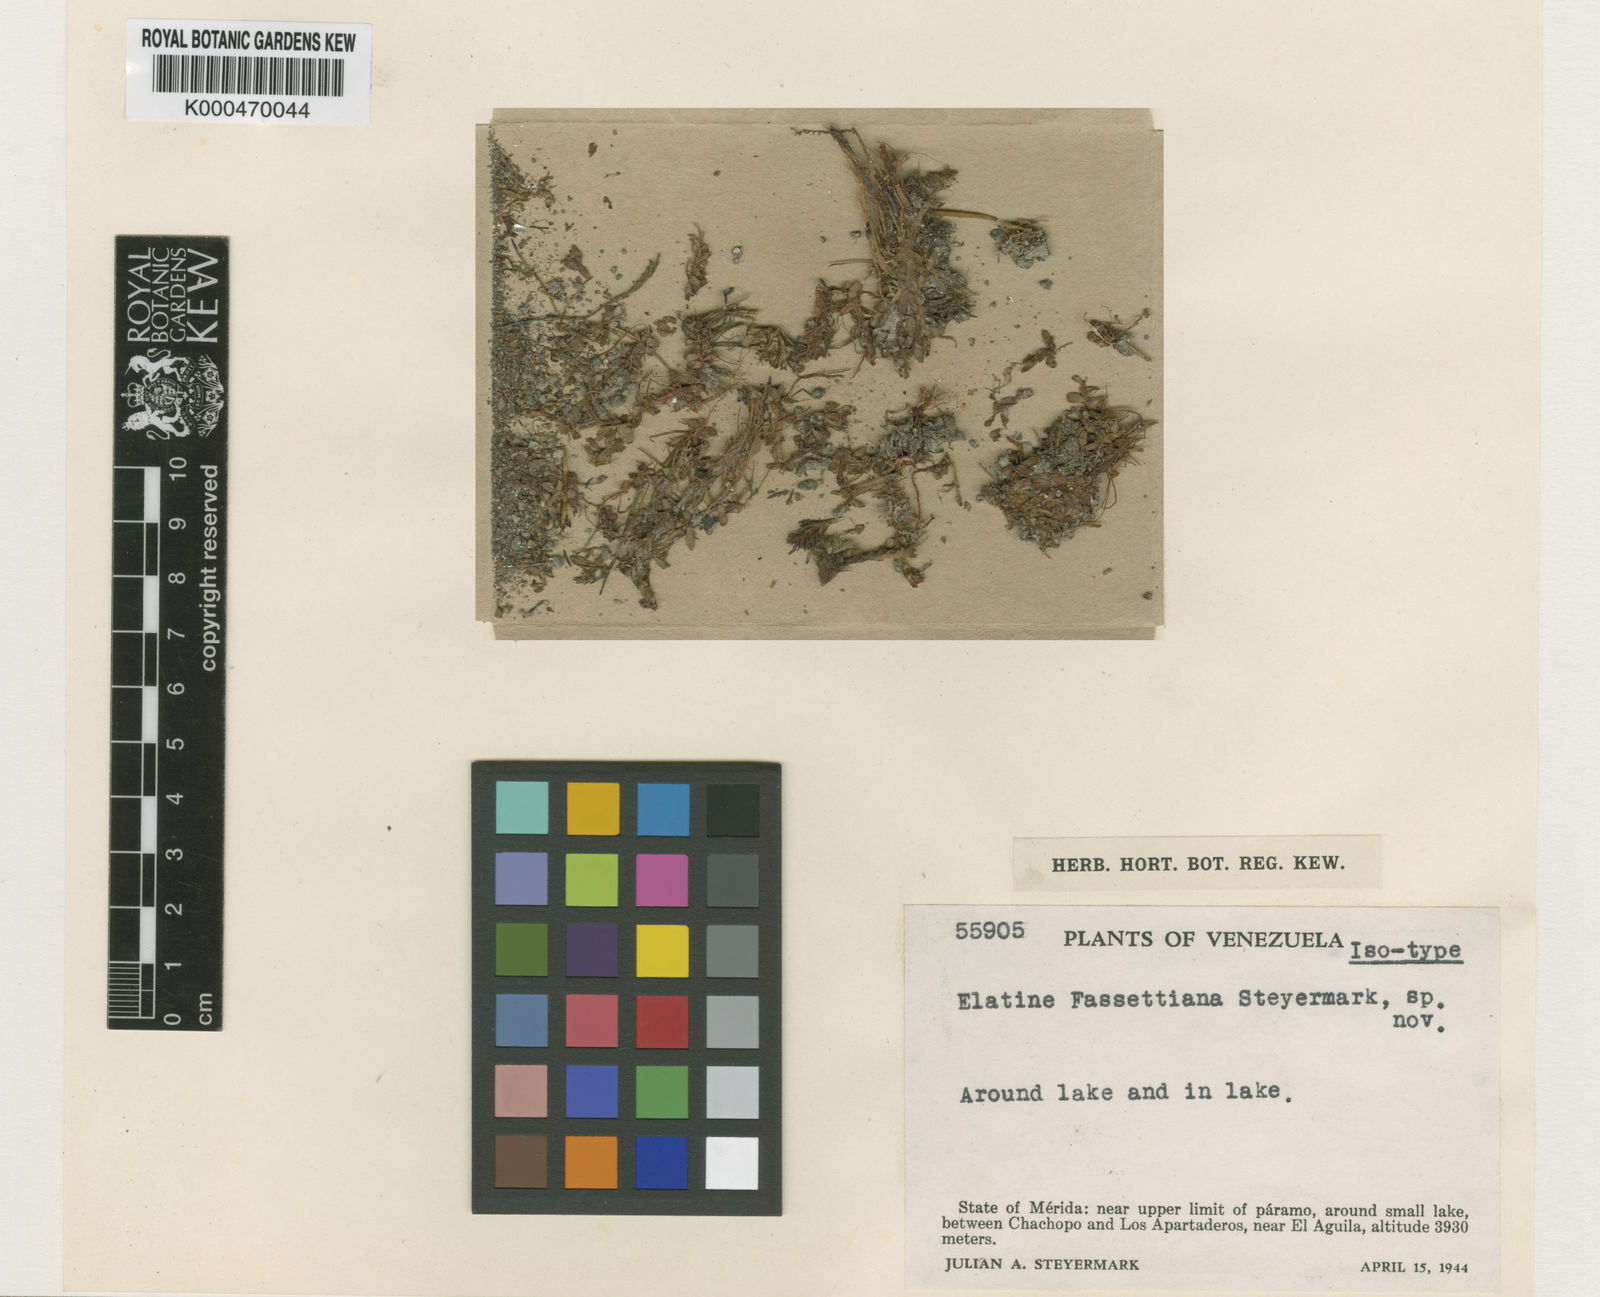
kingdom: Plantae
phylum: Tracheophyta
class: Magnoliopsida
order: Malpighiales
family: Elatinaceae
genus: Elatine
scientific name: Elatine fassettiana
